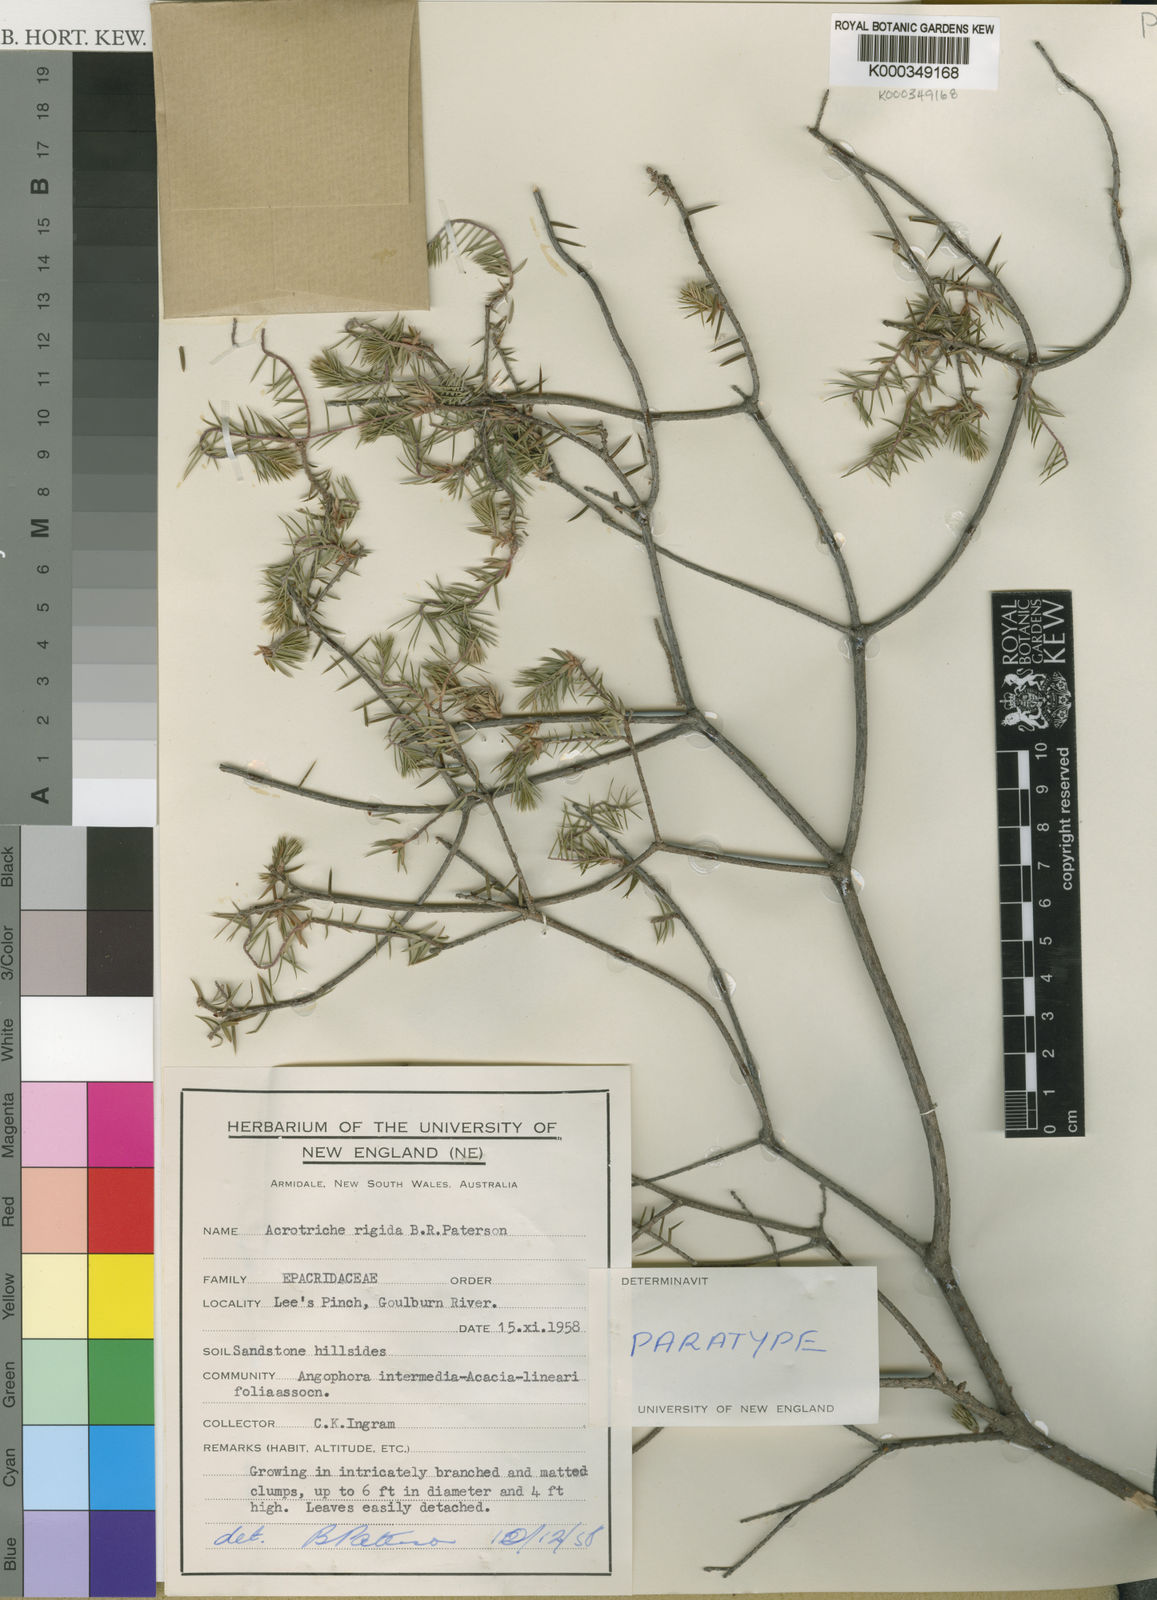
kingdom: Plantae
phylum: Tracheophyta
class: Magnoliopsida
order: Ericales
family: Ericaceae
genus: Acrotriche
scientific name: Acrotriche rigida
